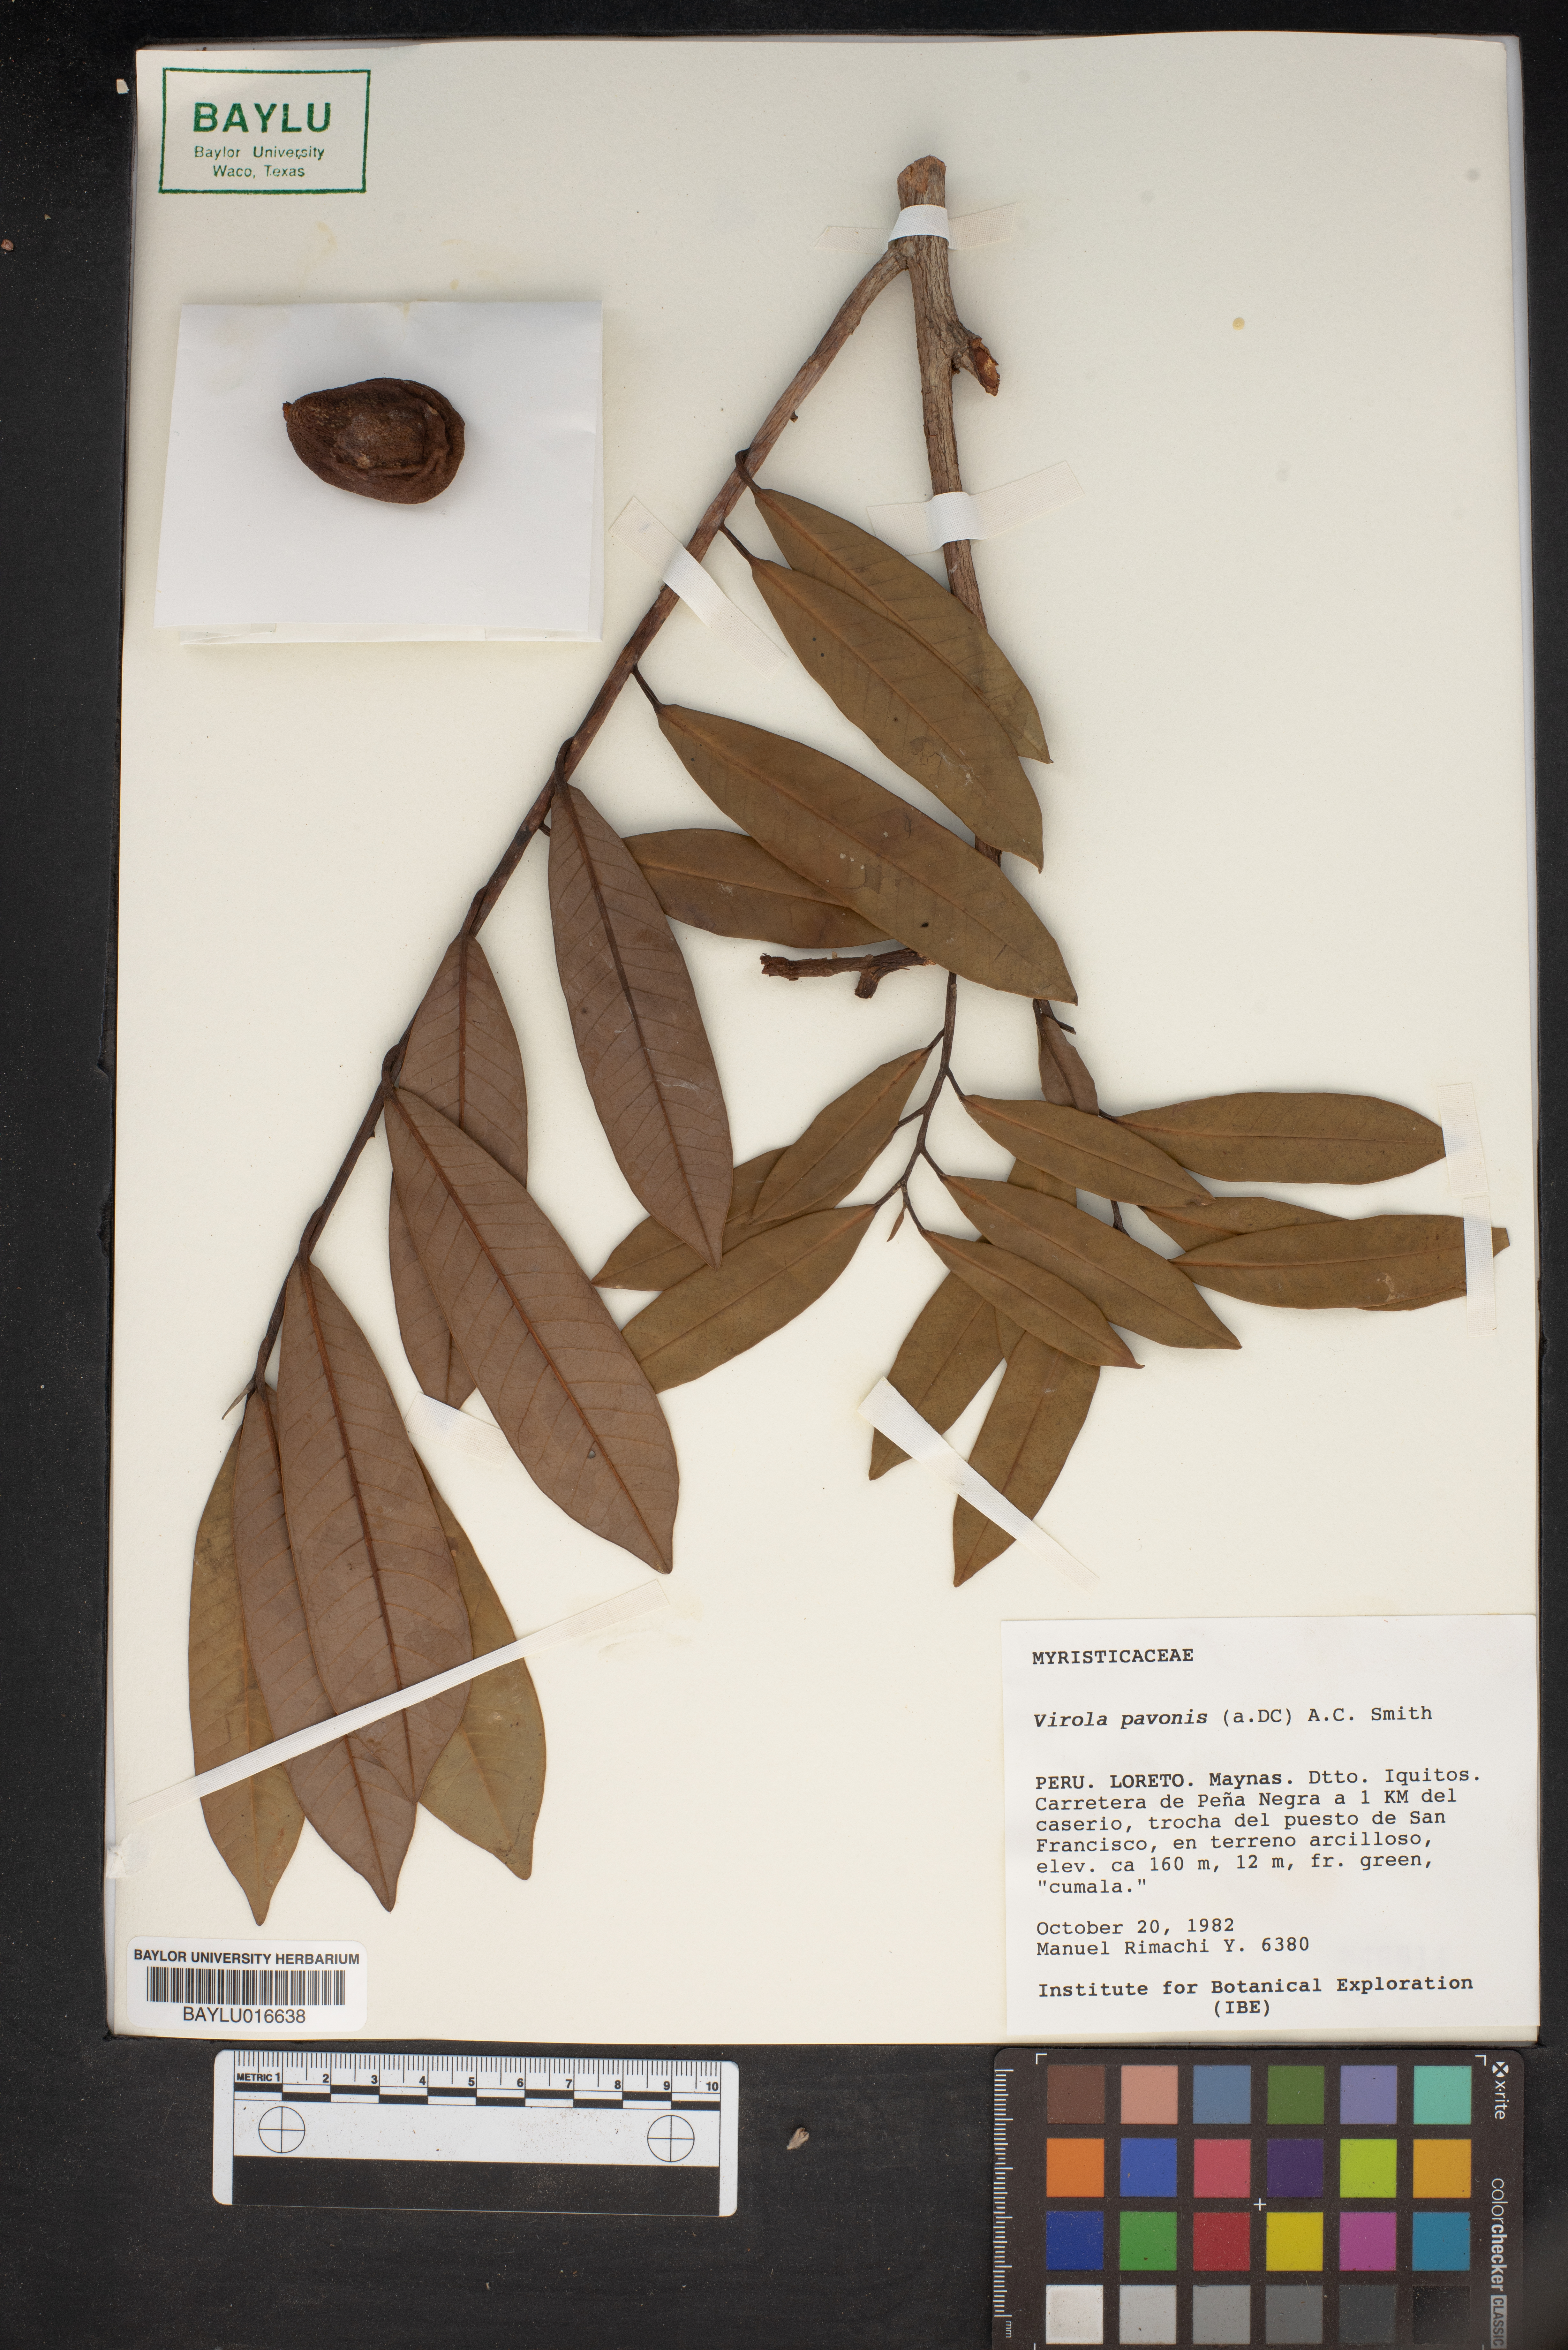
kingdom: Plantae
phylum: Tracheophyta
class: Magnoliopsida
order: Magnoliales
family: Myristicaceae
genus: Virola
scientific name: Virola pavonis
